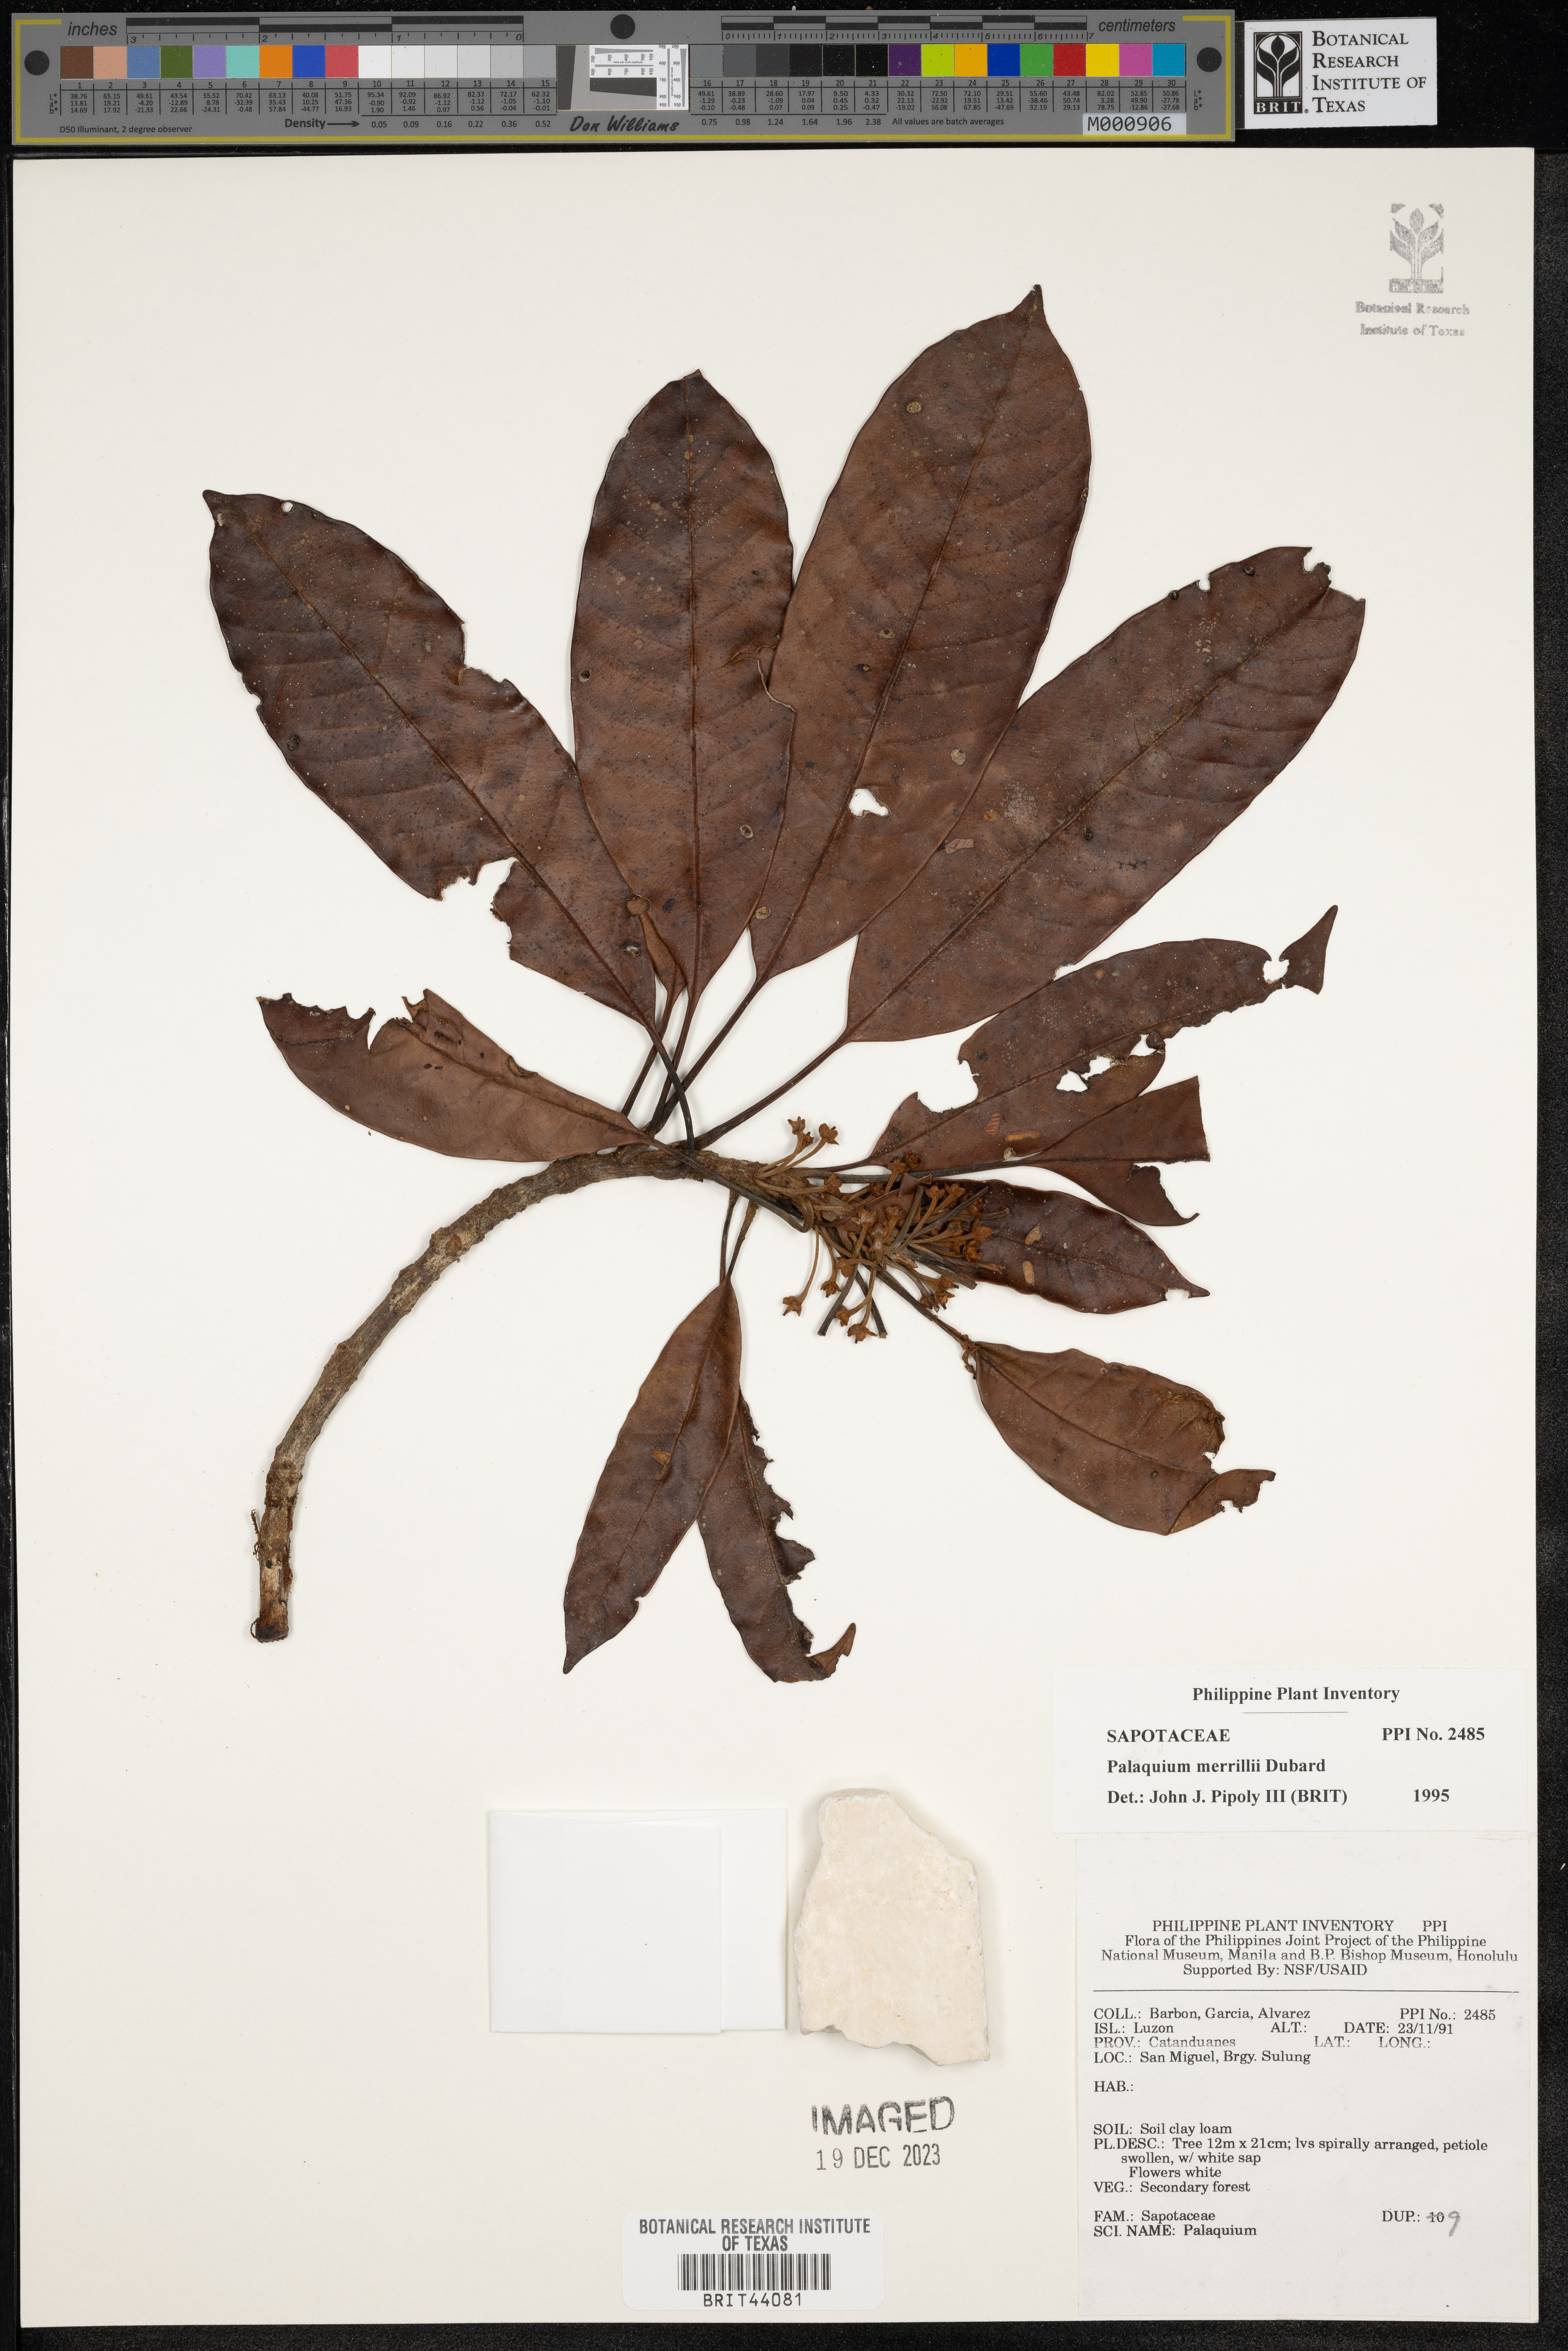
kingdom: Plantae
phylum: Tracheophyta
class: Magnoliopsida
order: Ericales
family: Sapotaceae
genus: Palaquium
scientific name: Palaquium merrillii
